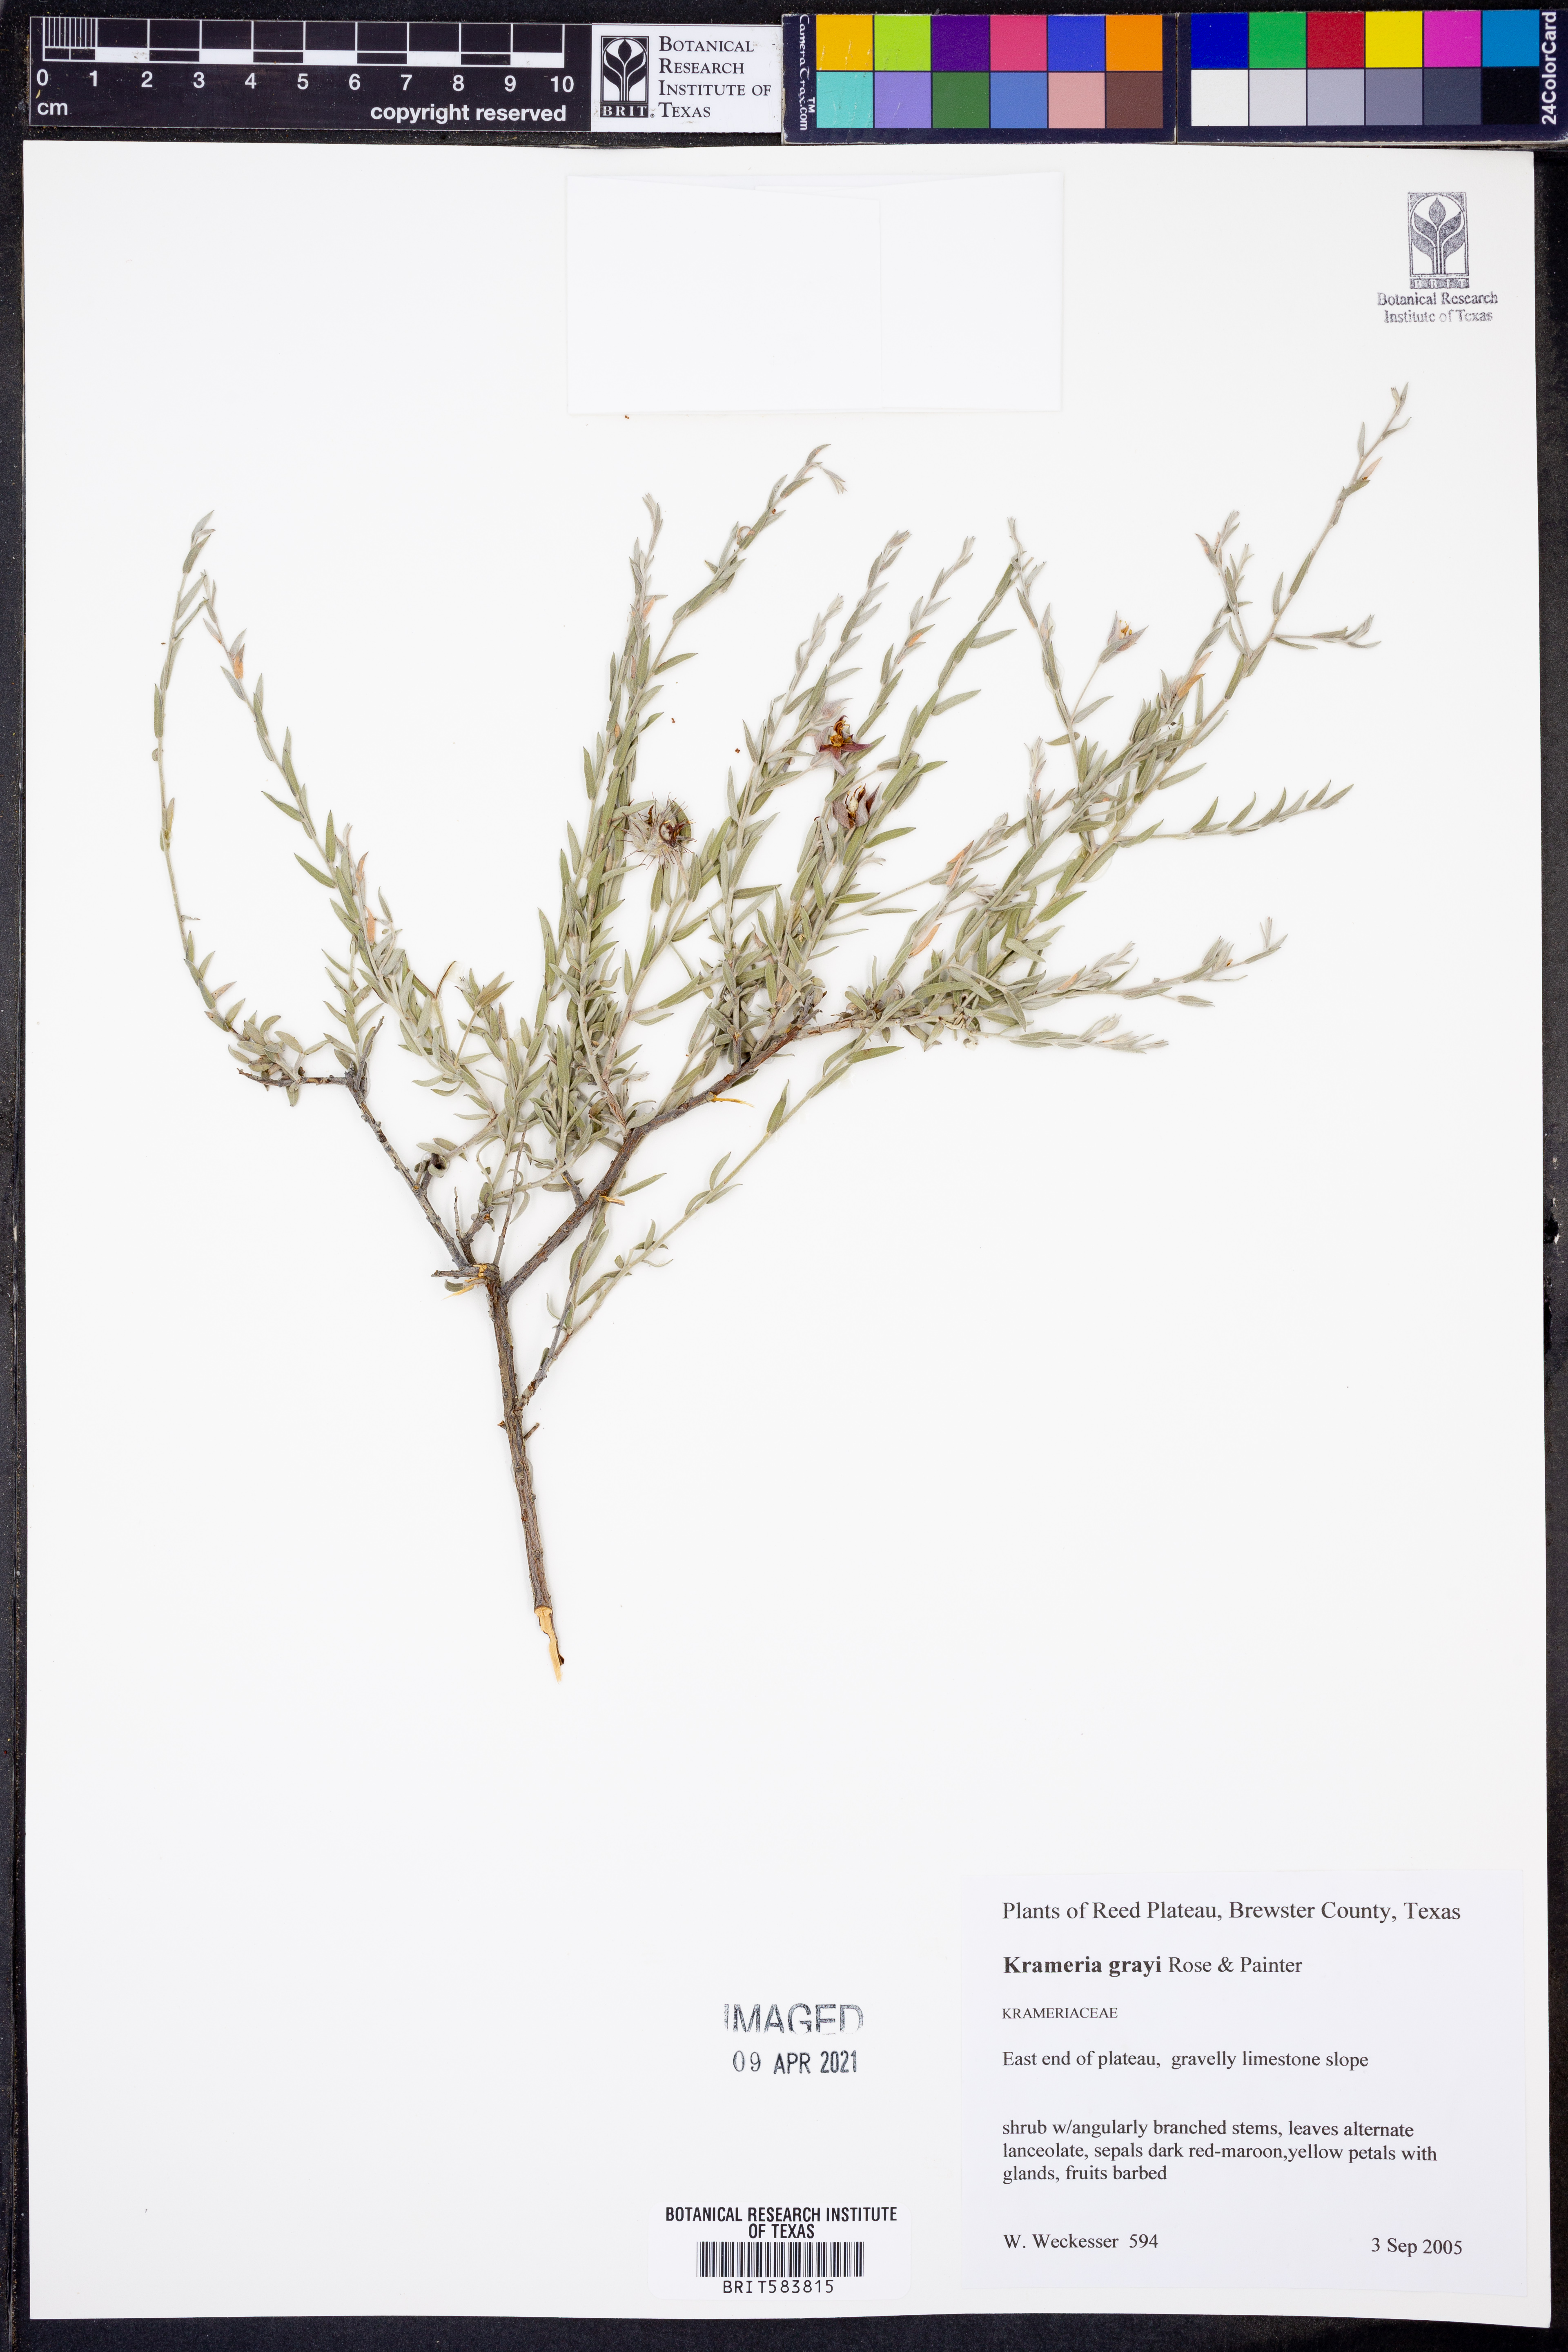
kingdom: Plantae
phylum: Tracheophyta
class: Magnoliopsida
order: Zygophyllales
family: Krameriaceae
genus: Krameria
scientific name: Krameria bicolor
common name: White ratany
